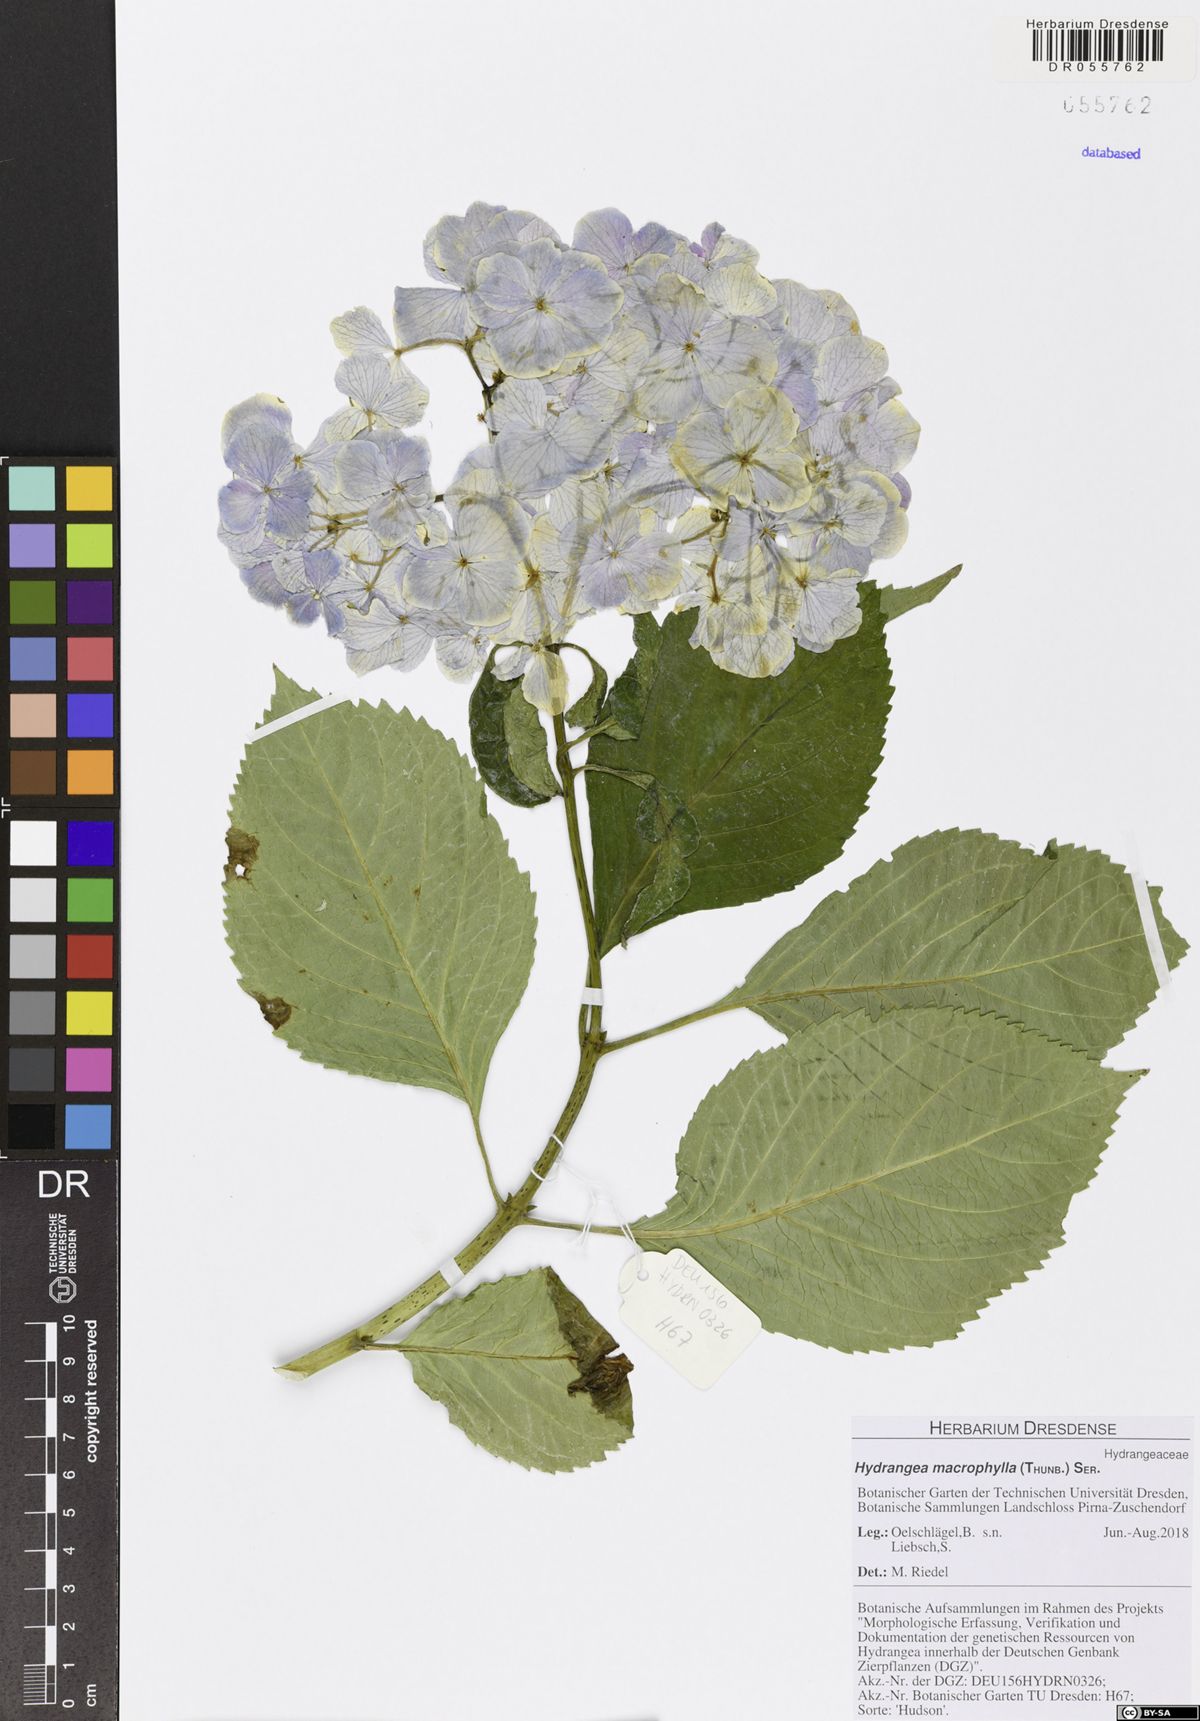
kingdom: Plantae
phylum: Tracheophyta
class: Magnoliopsida
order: Cornales
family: Hydrangeaceae
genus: Hydrangea
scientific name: Hydrangea macrophylla
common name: Hydrangea
